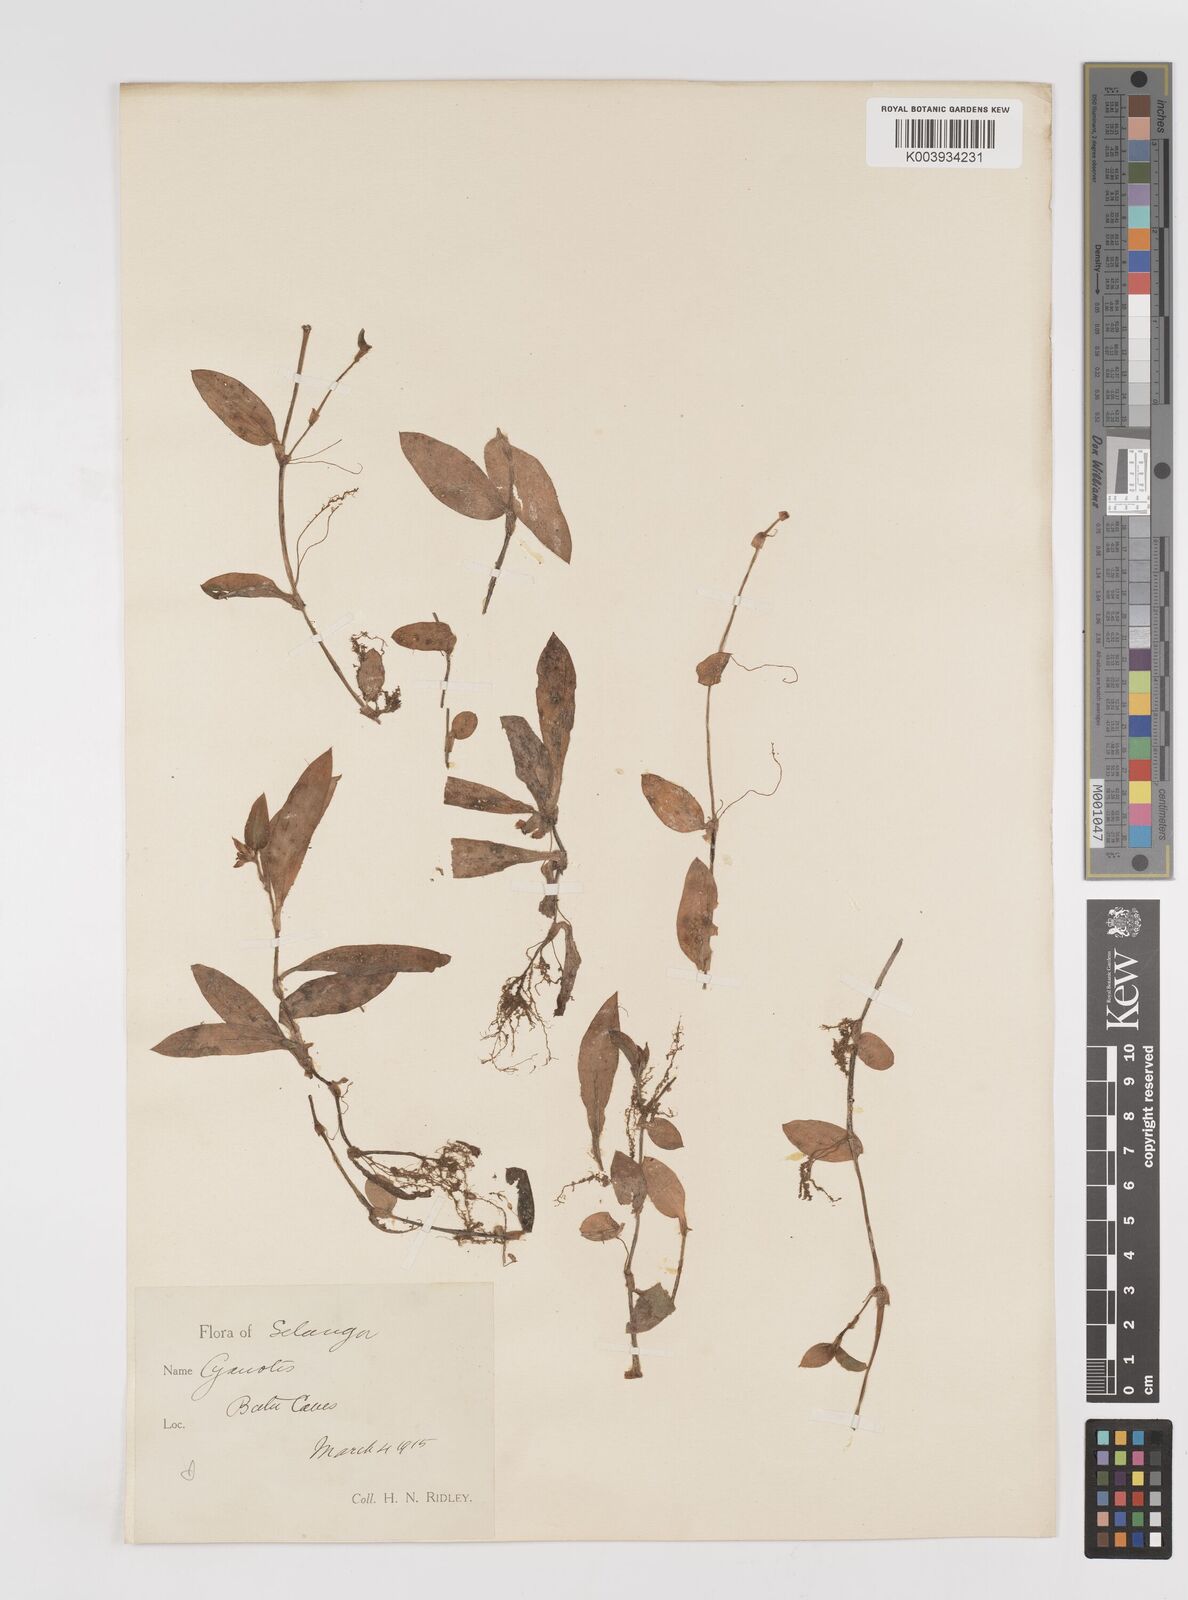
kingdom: Plantae
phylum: Tracheophyta
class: Liliopsida
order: Commelinales
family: Commelinaceae
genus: Cyanotis
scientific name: Cyanotis ciliata
